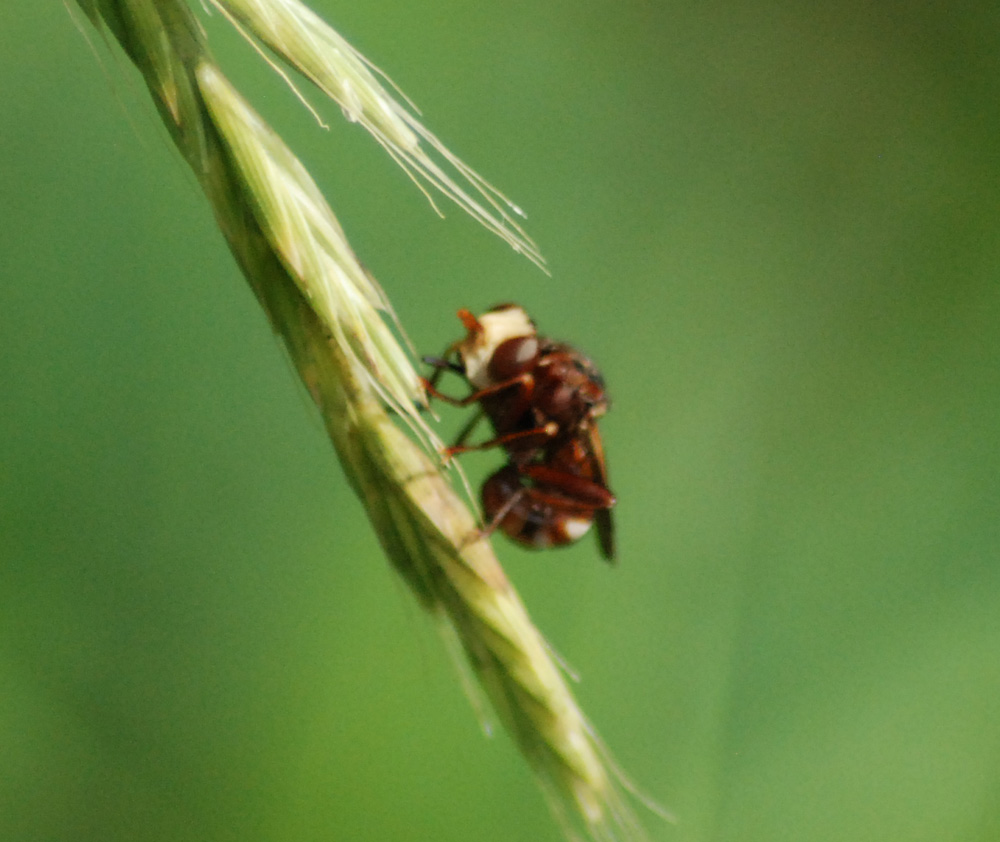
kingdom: Animalia
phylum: Arthropoda
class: Insecta
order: Diptera
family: Conopidae
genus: Sicus
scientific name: Sicus ferrugineus
